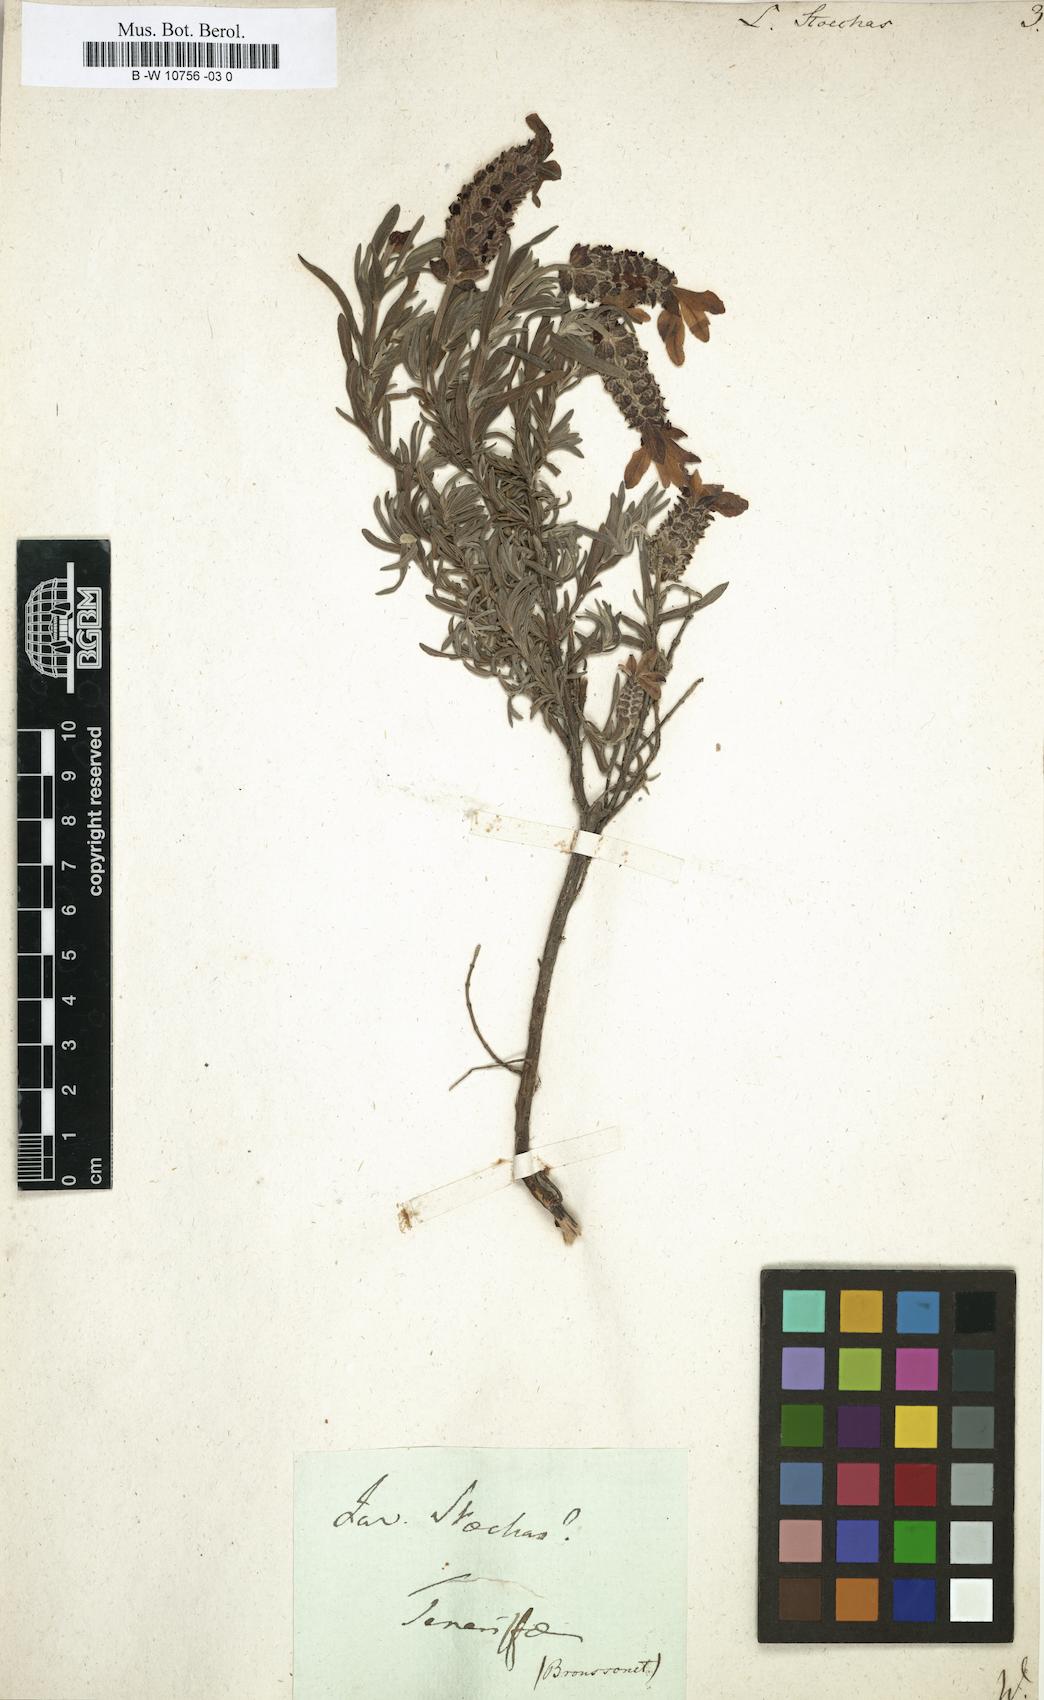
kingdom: Plantae
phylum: Tracheophyta
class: Magnoliopsida
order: Lamiales
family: Lamiaceae
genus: Lavandula
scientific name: Lavandula stoechas
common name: French lavender
